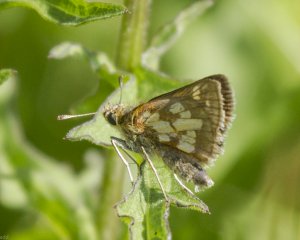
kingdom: Animalia
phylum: Arthropoda
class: Insecta
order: Lepidoptera
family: Hesperiidae
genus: Polites
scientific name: Polites coras
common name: Peck's Skipper
